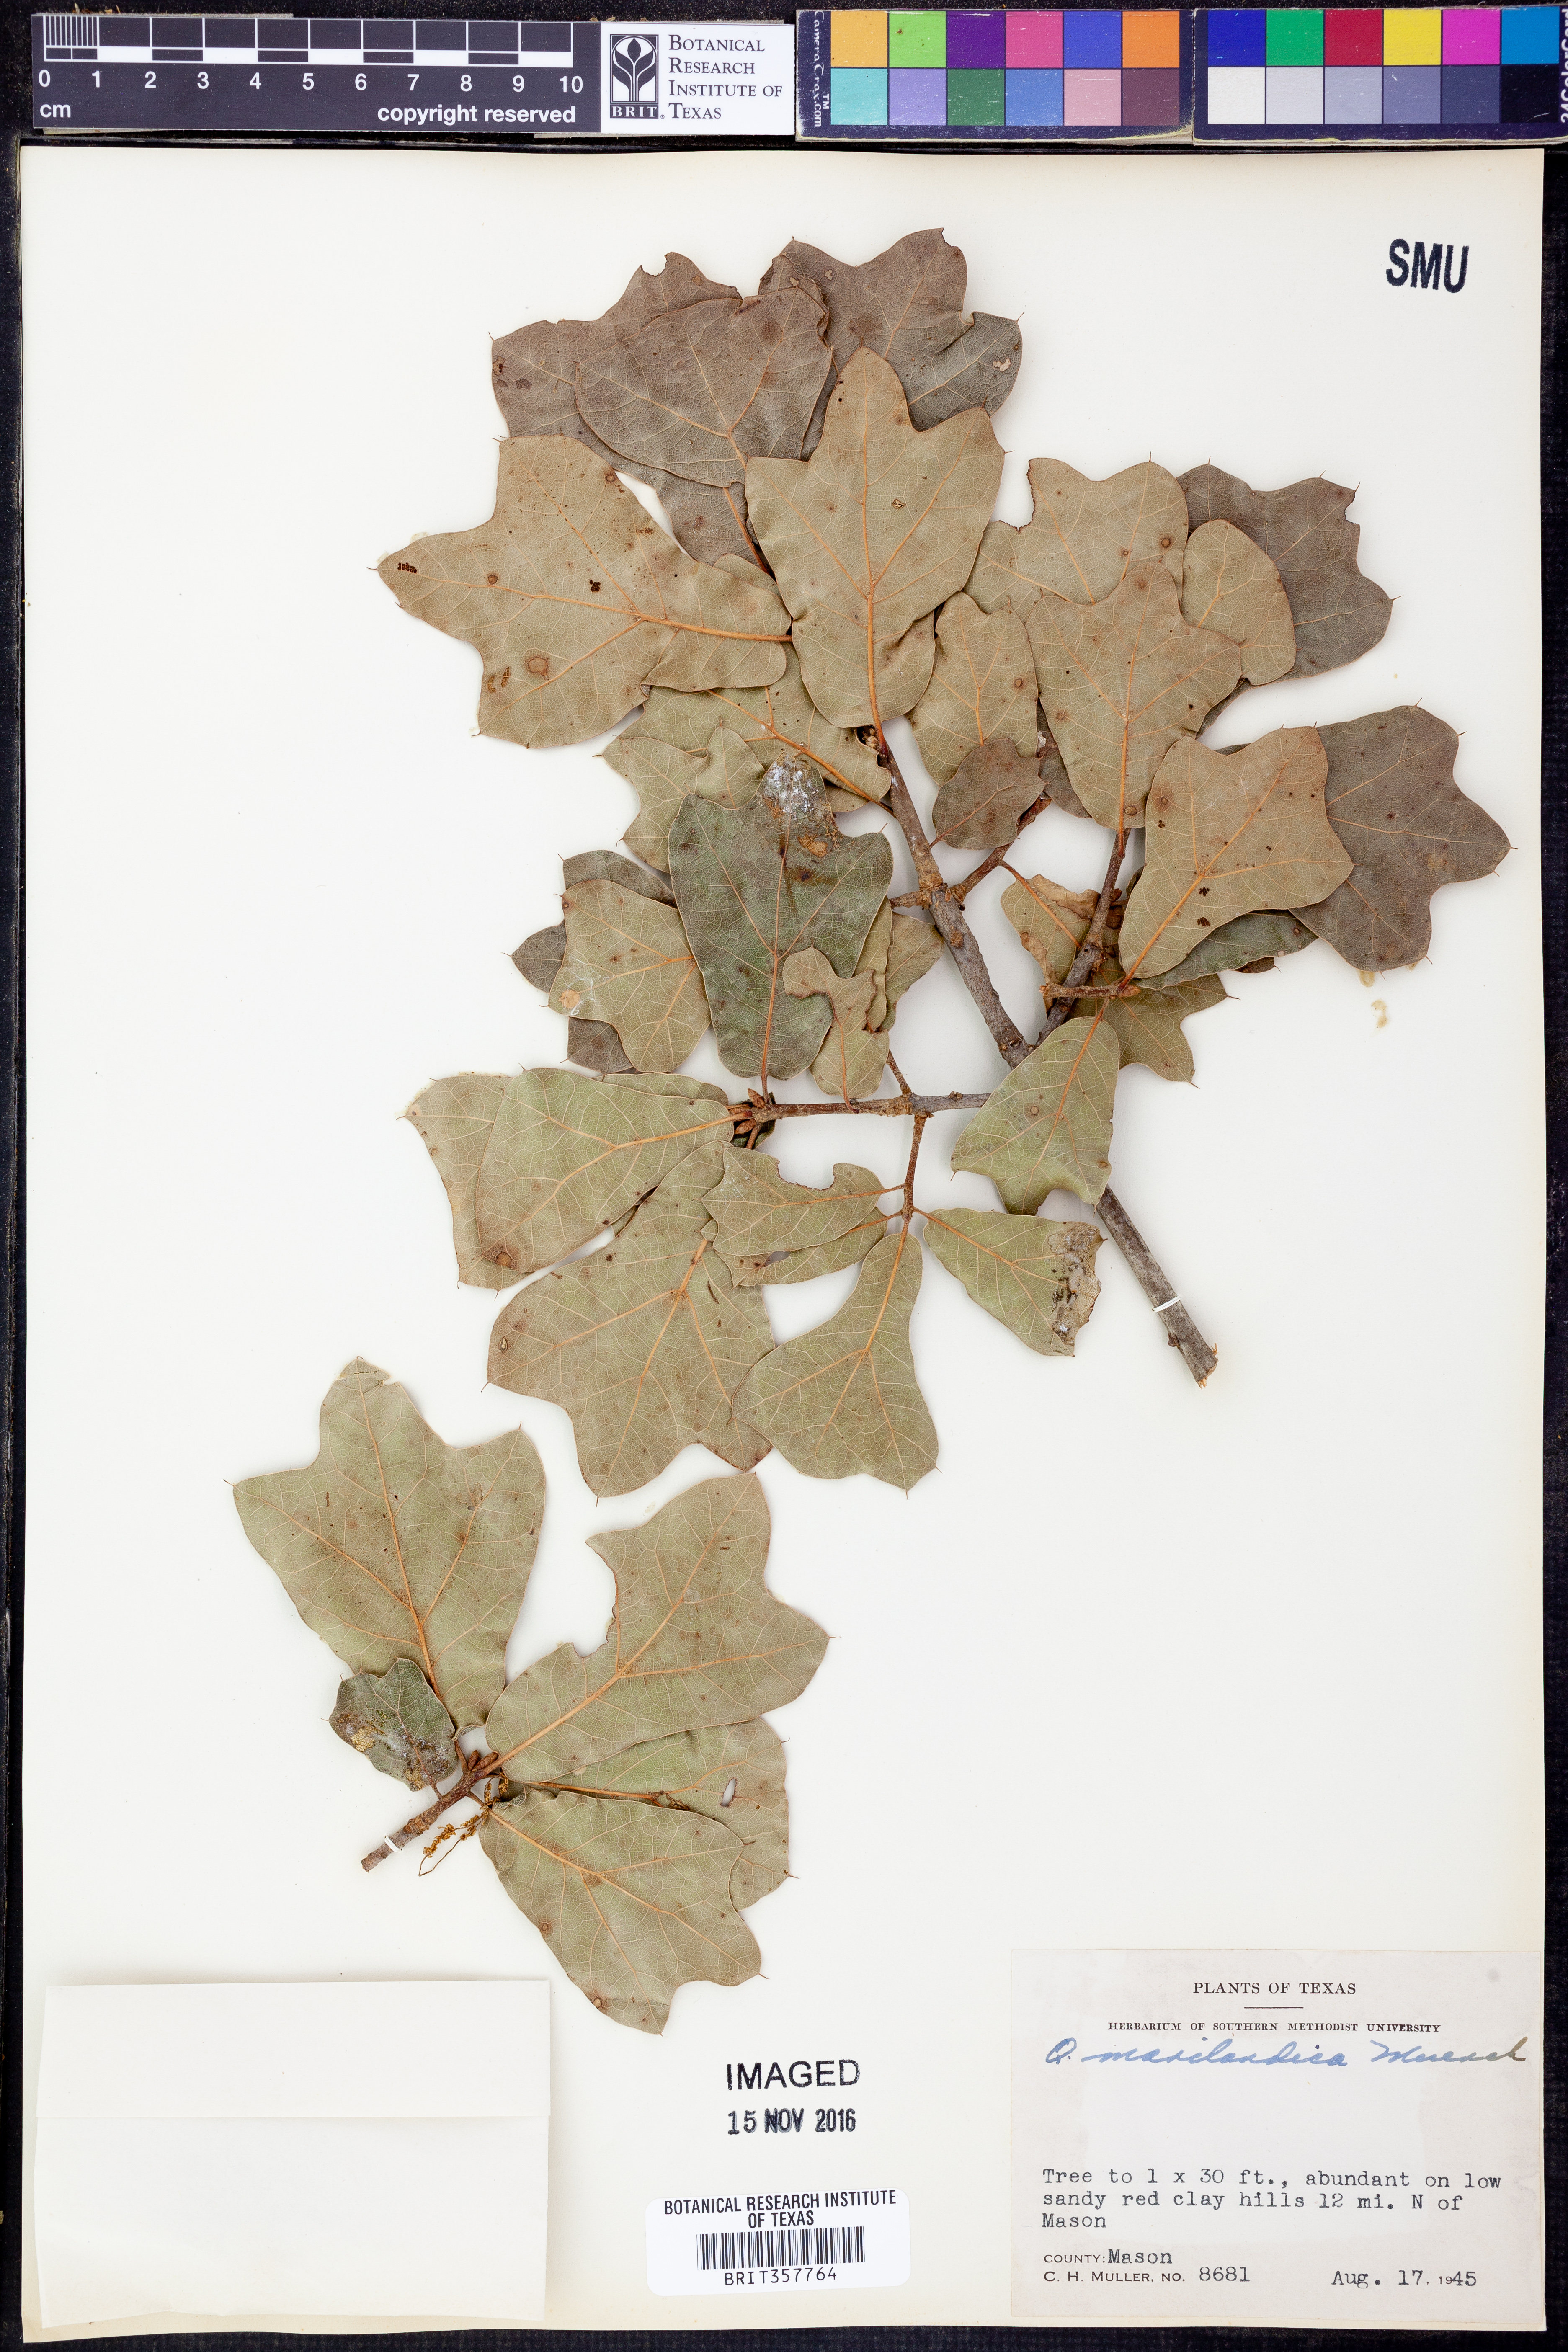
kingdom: Plantae
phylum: Tracheophyta
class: Magnoliopsida
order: Fagales
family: Fagaceae
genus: Quercus
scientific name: Quercus marilandica
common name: Blackjack oak
